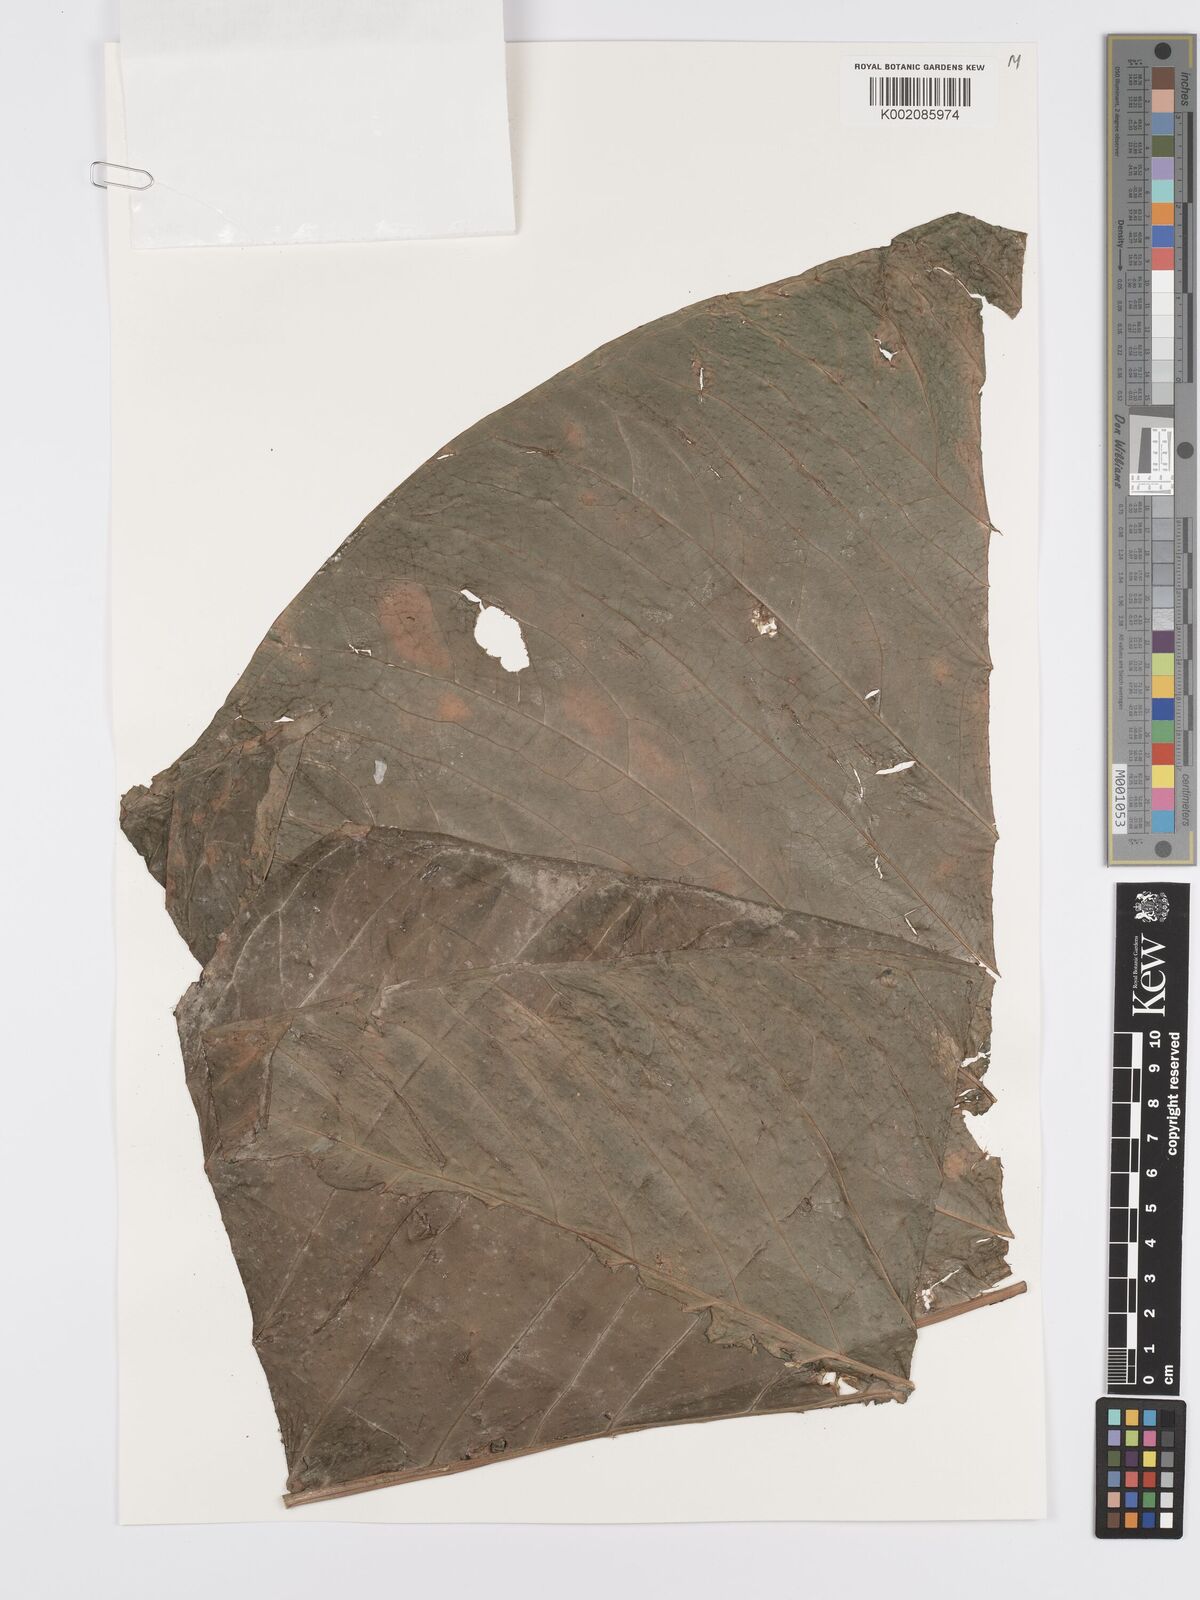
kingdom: Plantae
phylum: Tracheophyta
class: Liliopsida
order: Alismatales
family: Araceae
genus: Anthurium
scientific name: Anthurium dolichostachyum
